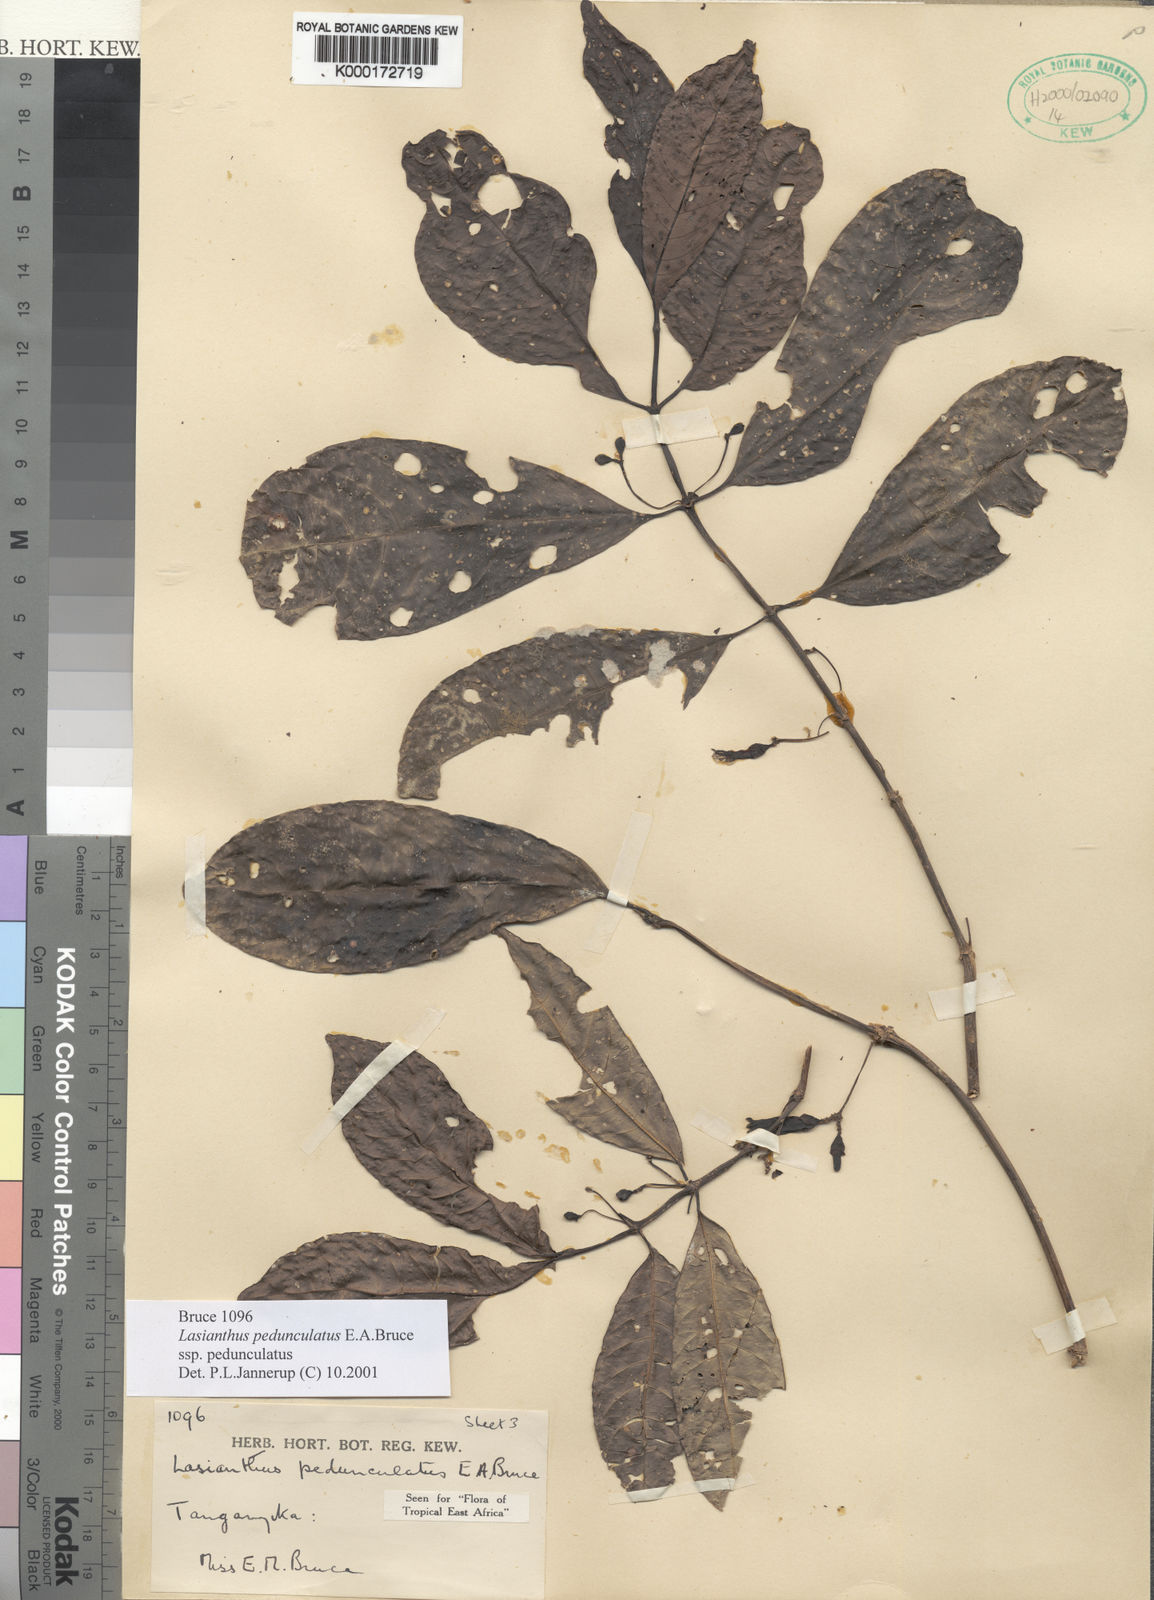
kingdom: Plantae
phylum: Tracheophyta
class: Magnoliopsida
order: Gentianales
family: Rubiaceae
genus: Lasianthus
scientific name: Lasianthus pedunculatus
